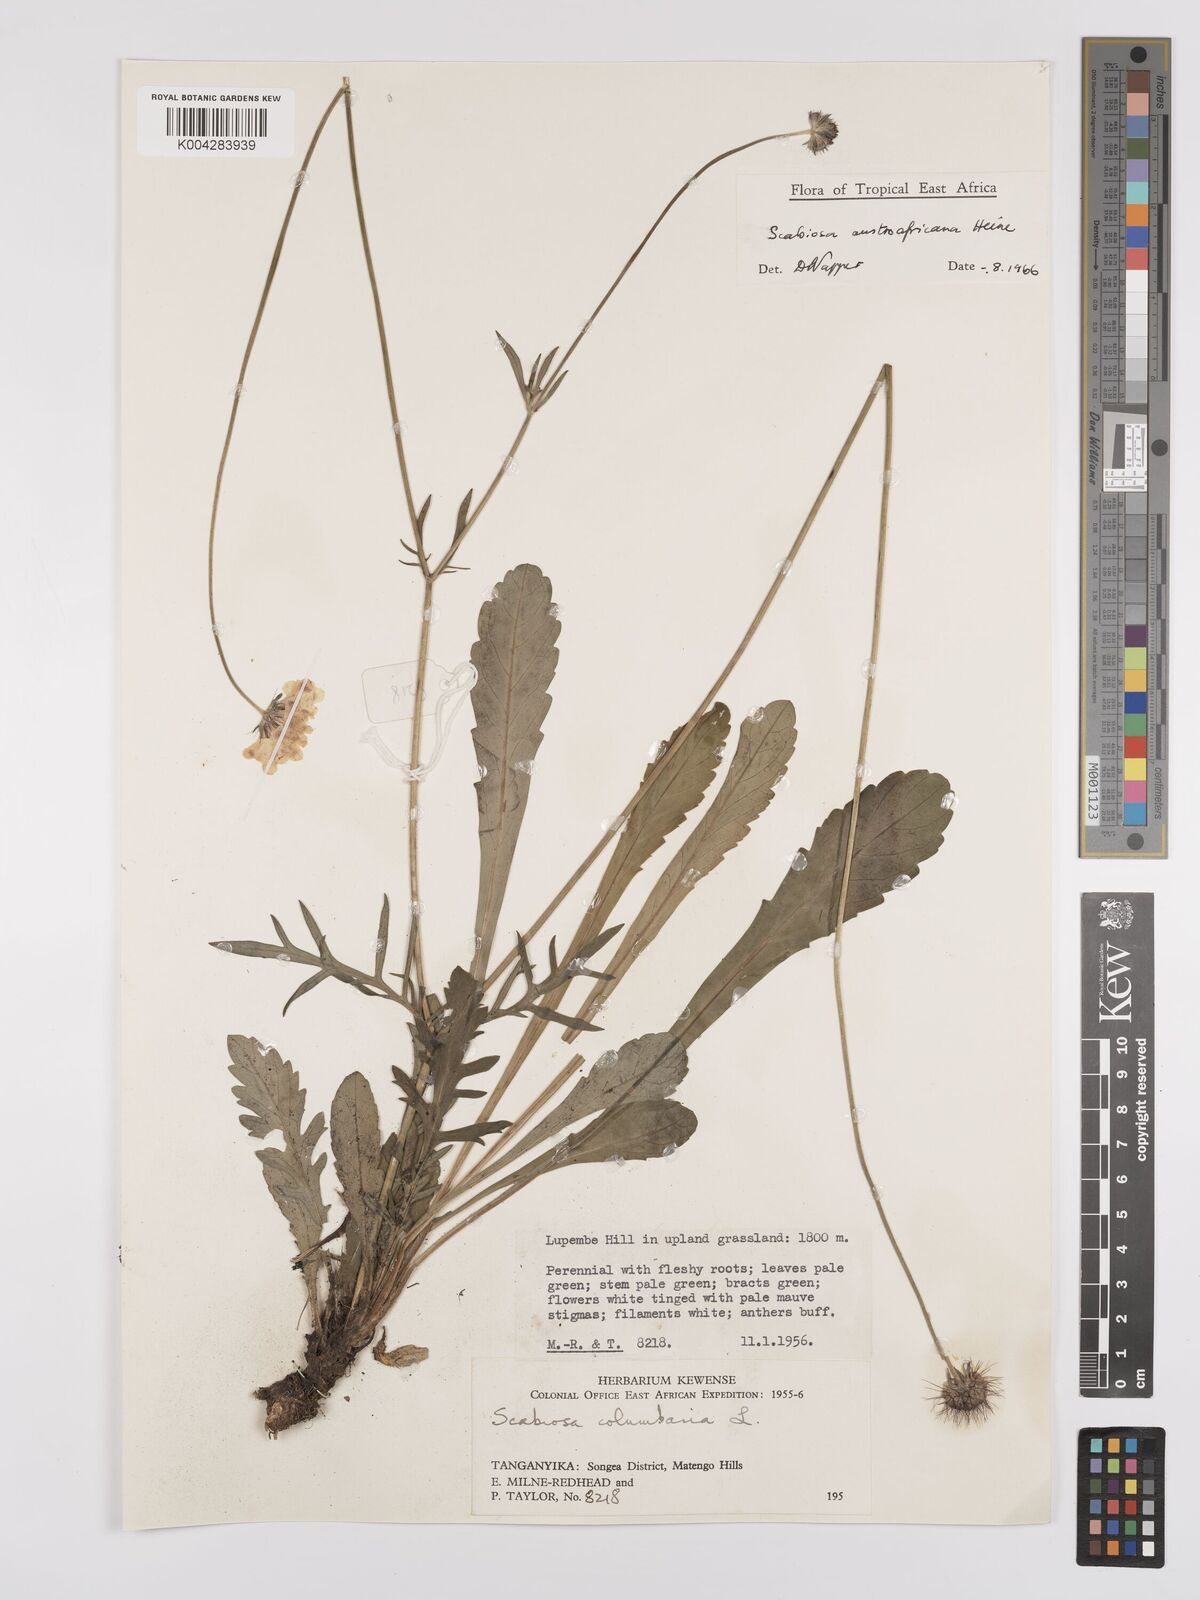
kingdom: Plantae
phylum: Tracheophyta
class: Magnoliopsida
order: Dipsacales
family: Caprifoliaceae
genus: Scabiosa
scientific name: Scabiosa austroafricana
